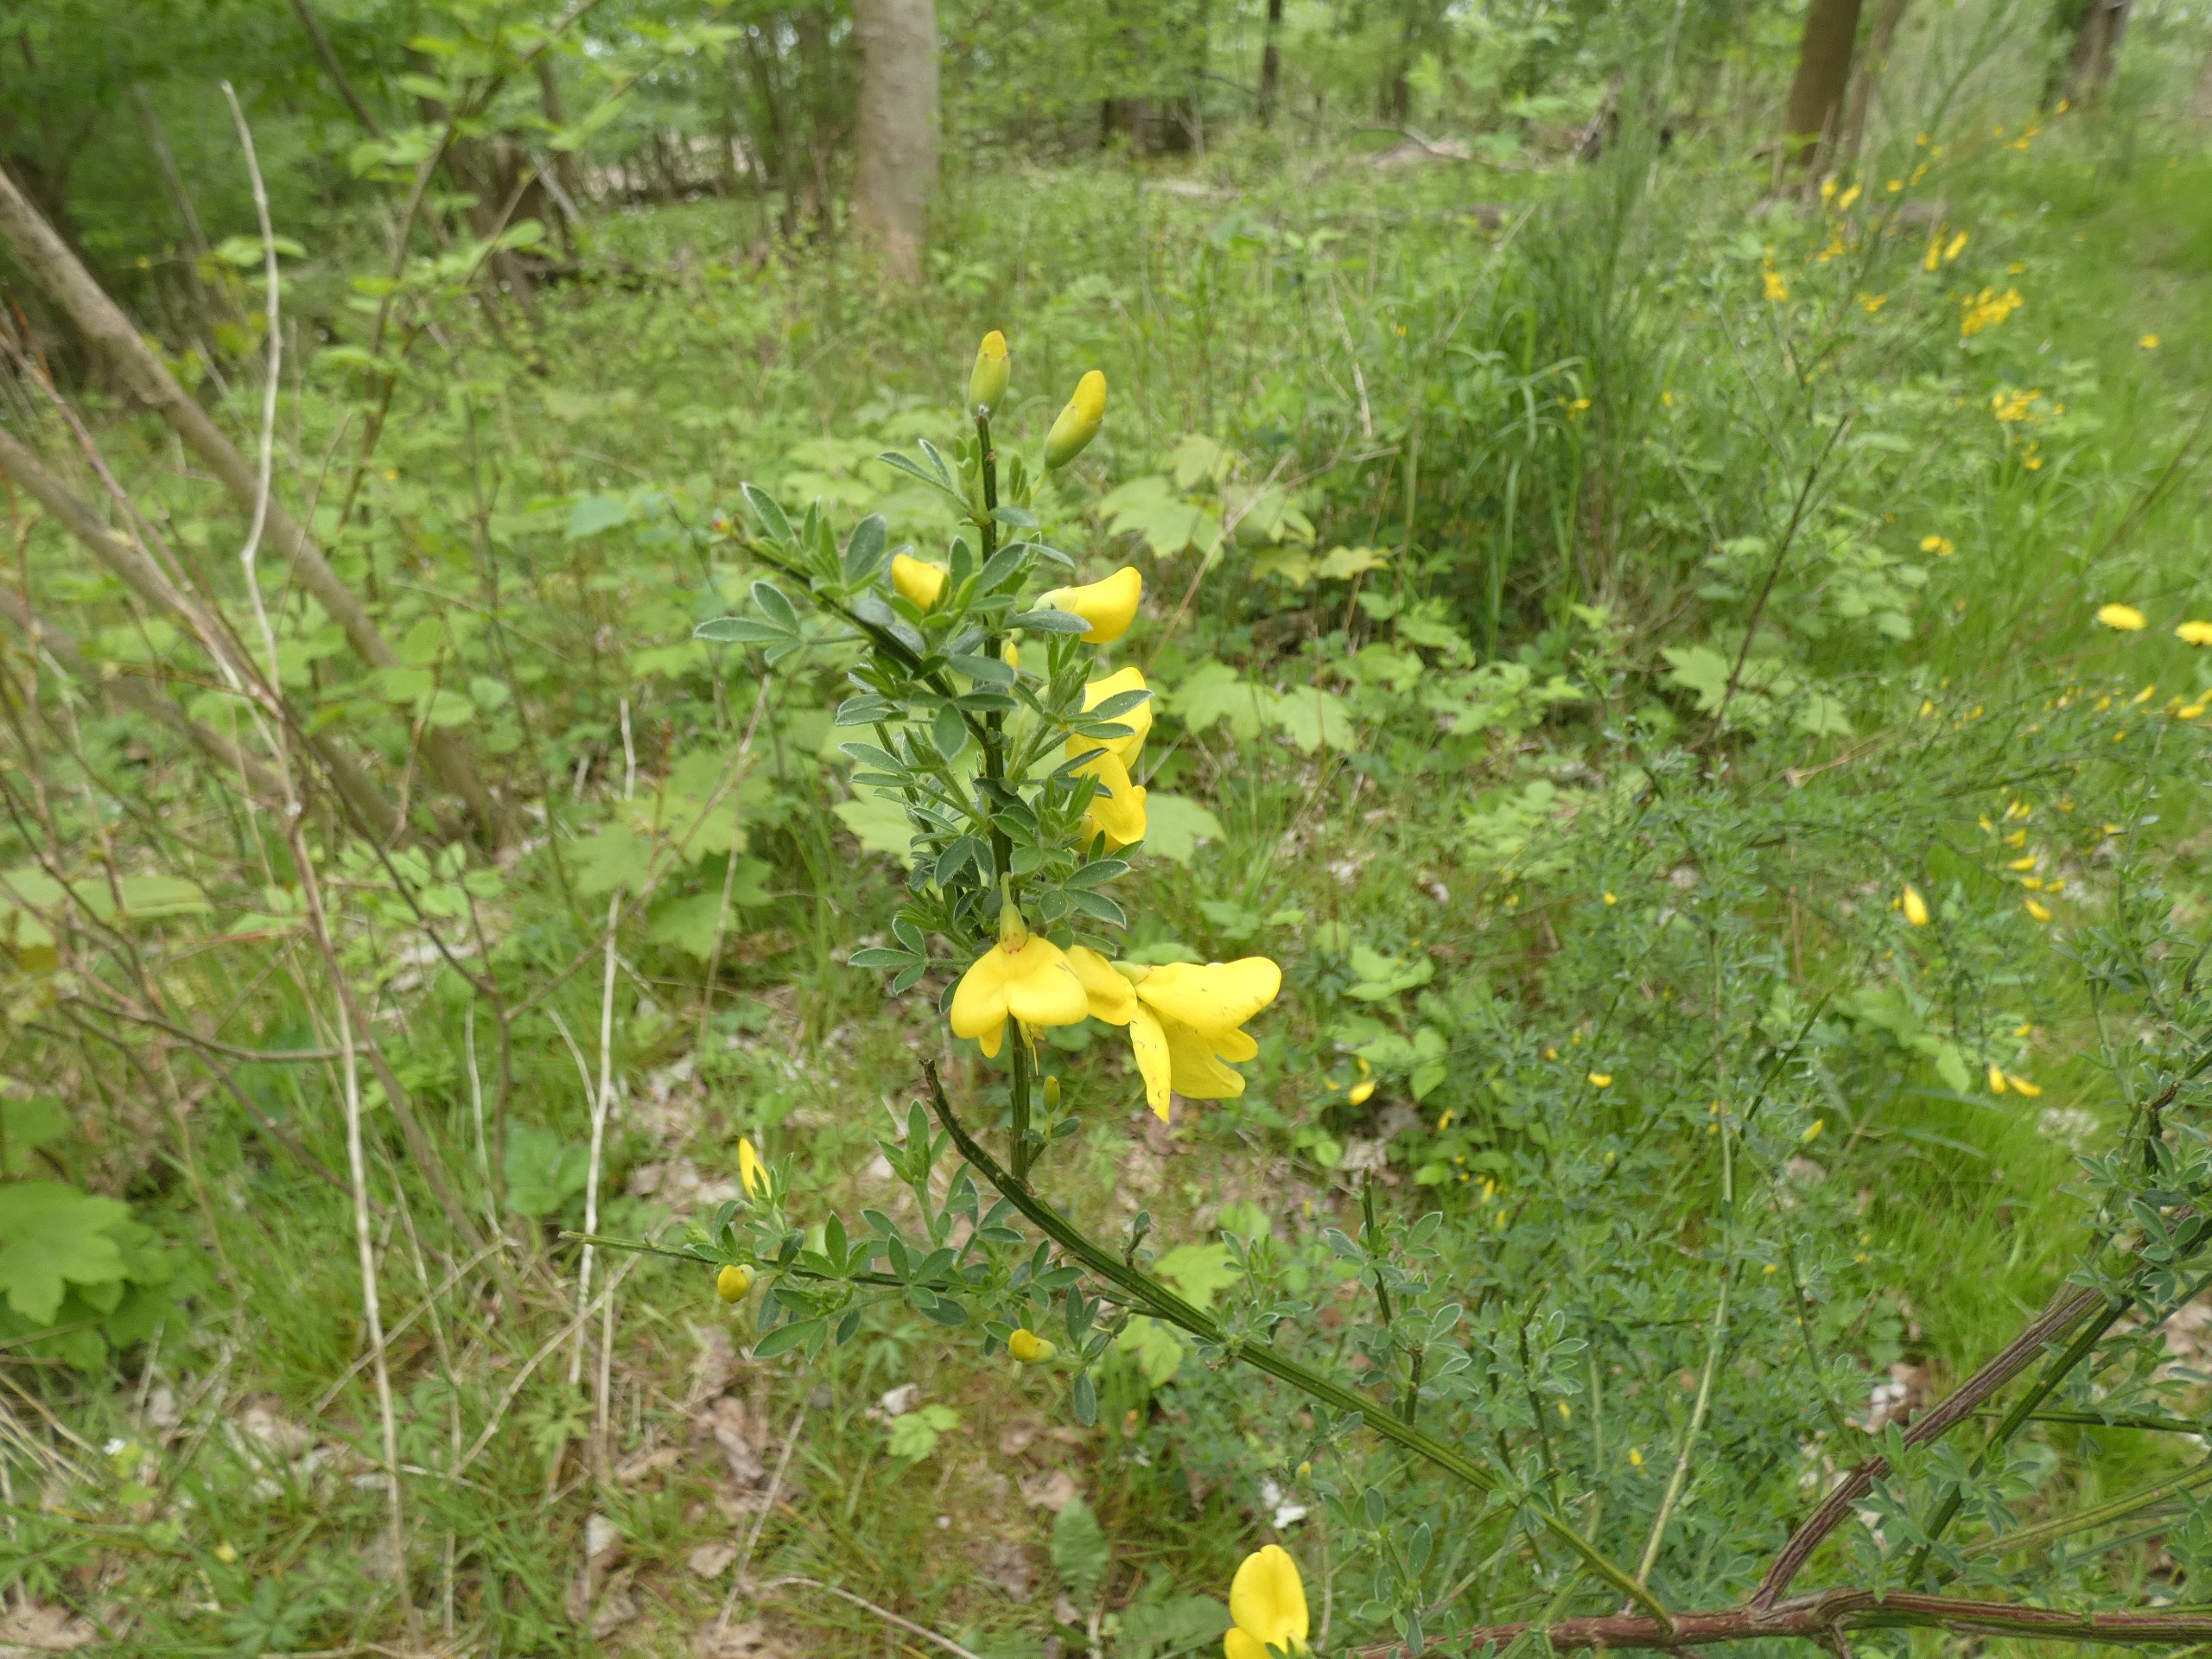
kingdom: Plantae
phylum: Tracheophyta
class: Magnoliopsida
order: Fabales
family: Fabaceae
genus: Cytisus
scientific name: Cytisus scoparius
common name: Almindelig gyvel
